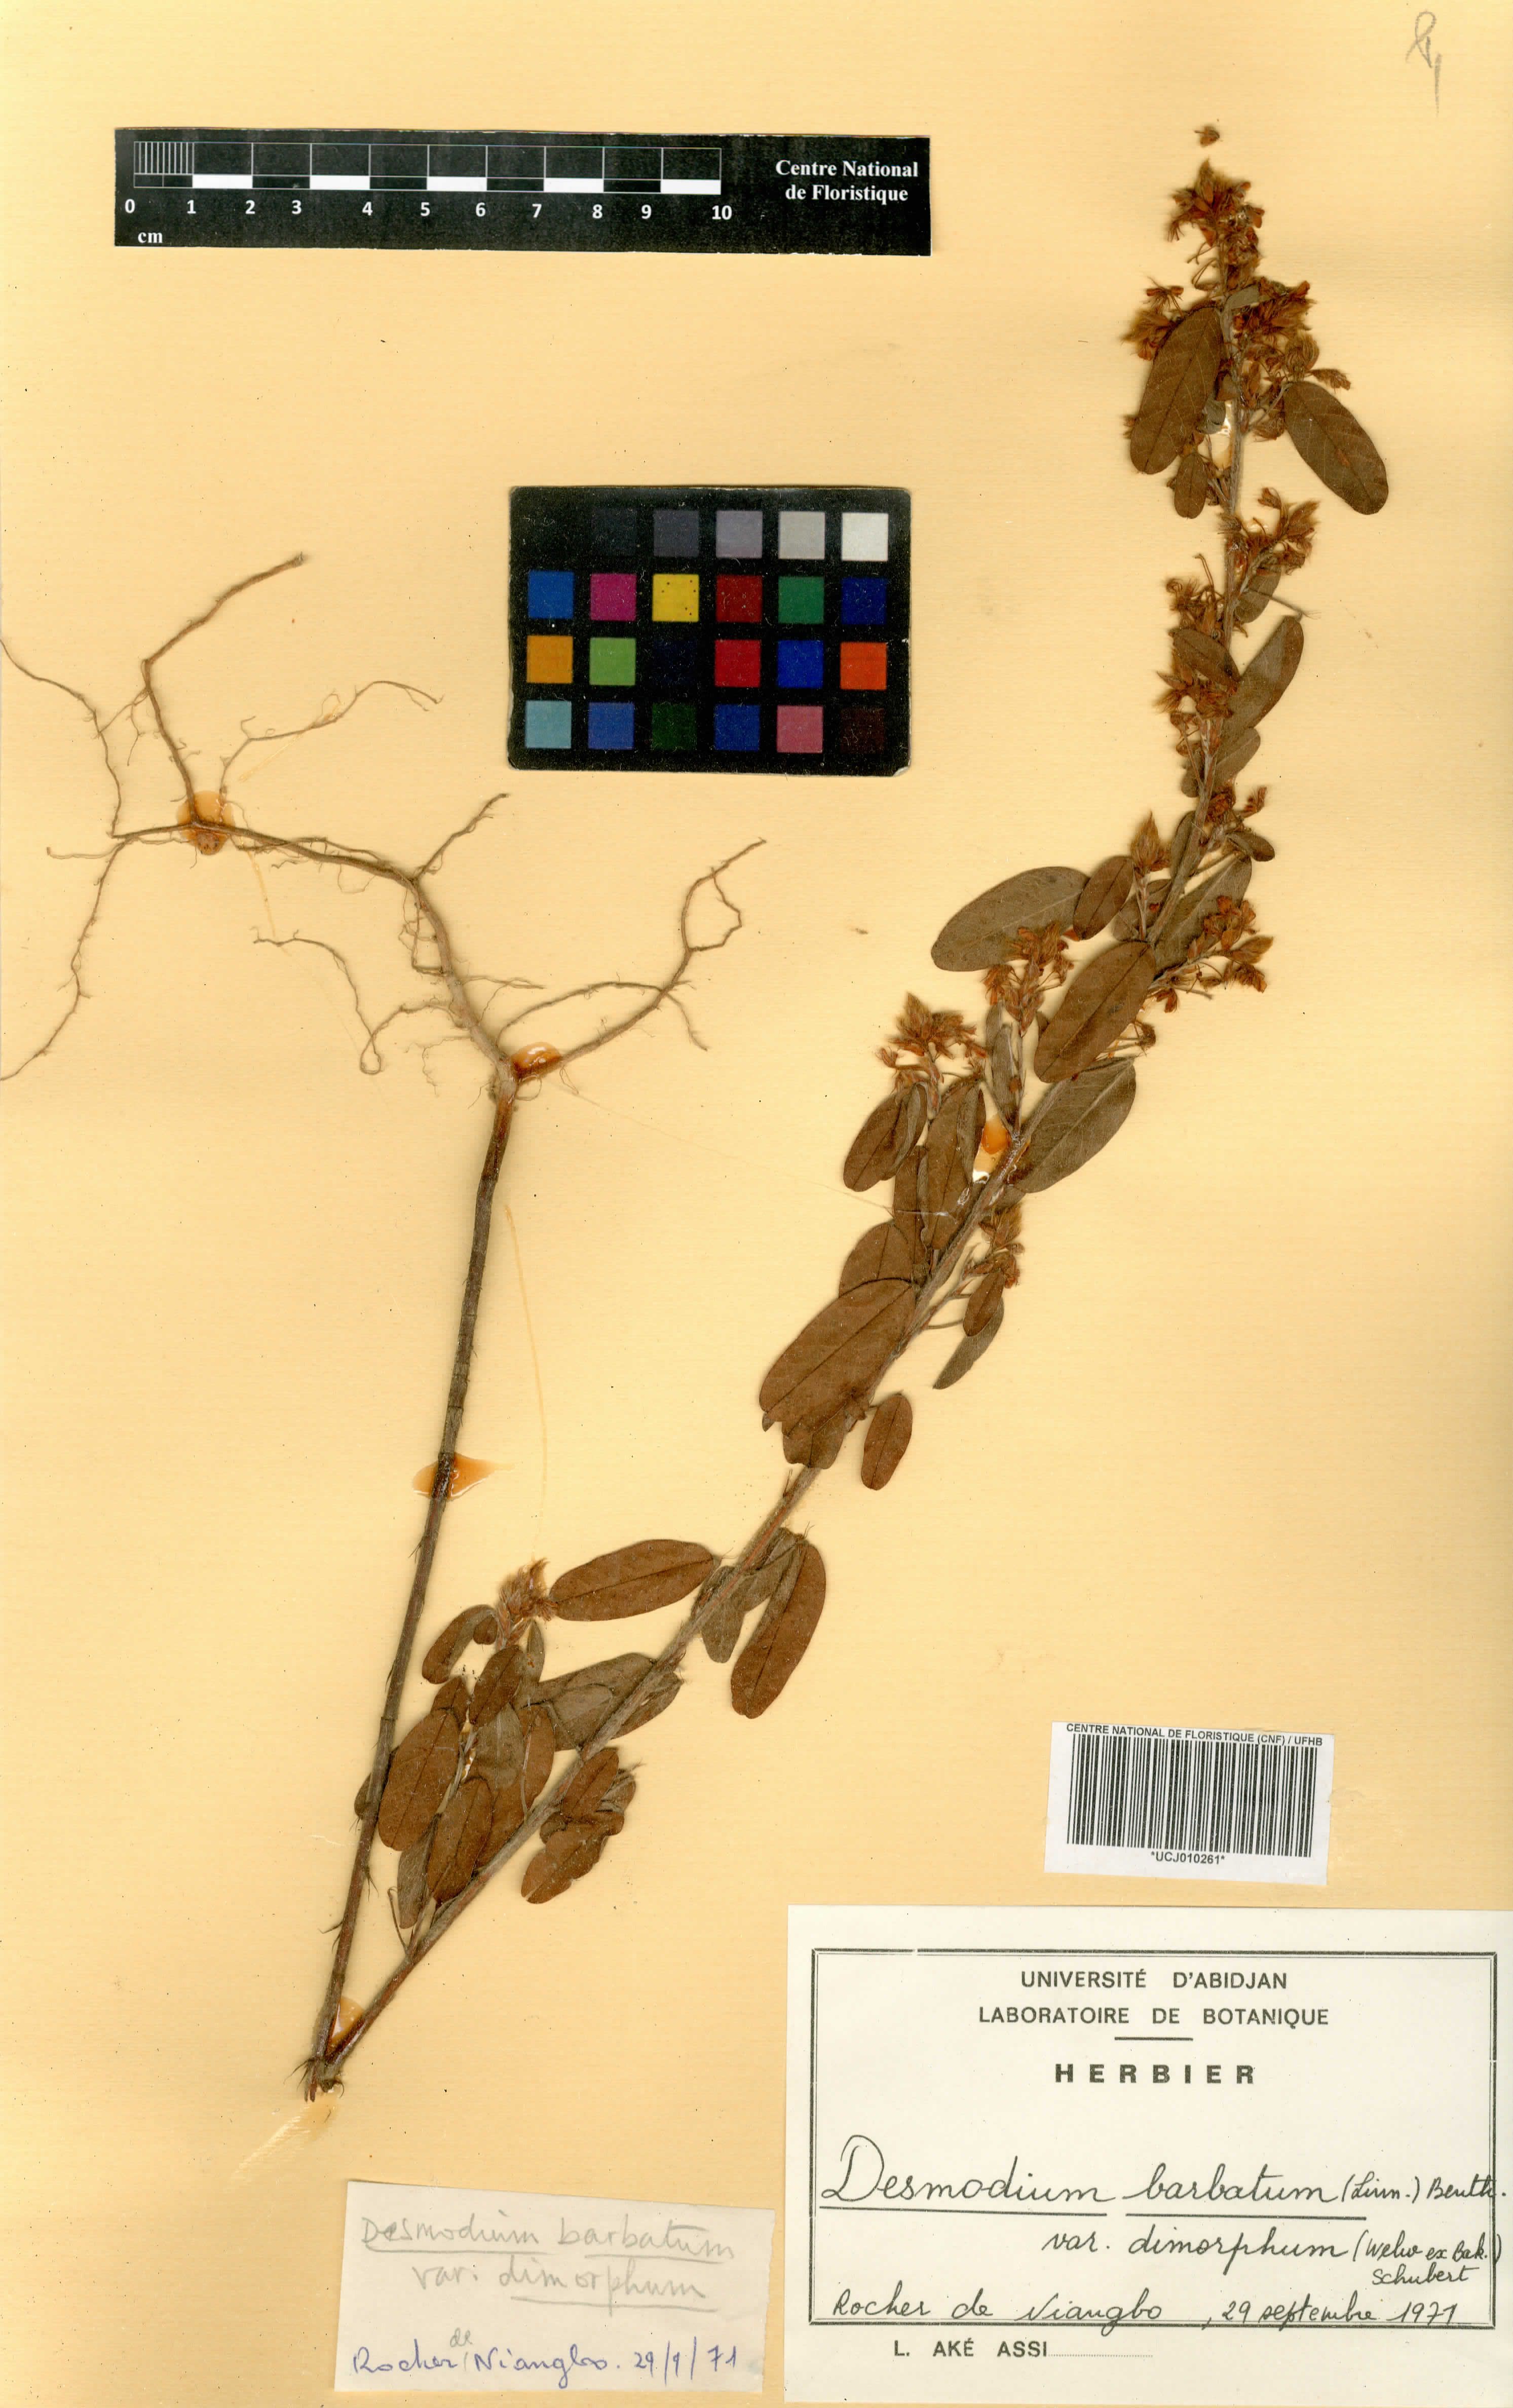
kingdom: Plantae
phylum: Tracheophyta
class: Magnoliopsida
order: Fabales
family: Fabaceae
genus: Grona
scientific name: Grona barbata
